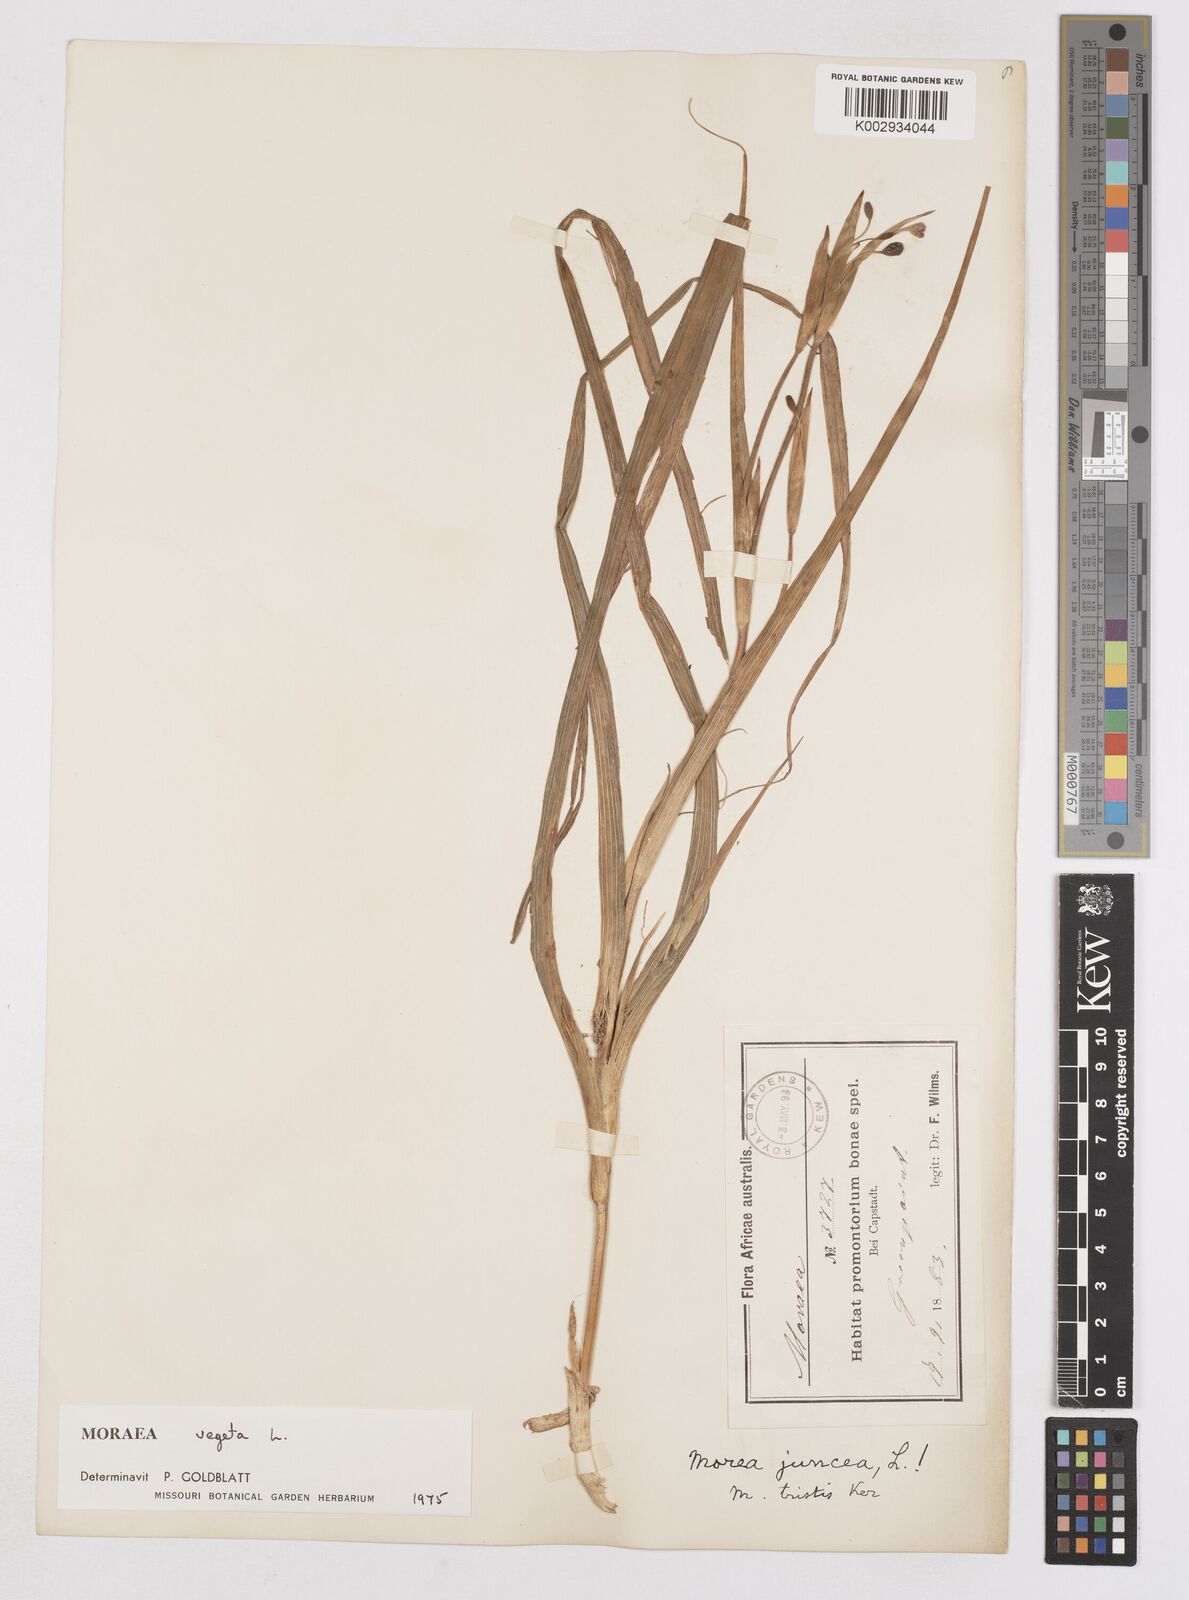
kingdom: Plantae
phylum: Tracheophyta
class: Liliopsida
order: Asparagales
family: Iridaceae
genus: Moraea
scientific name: Moraea vegeta
